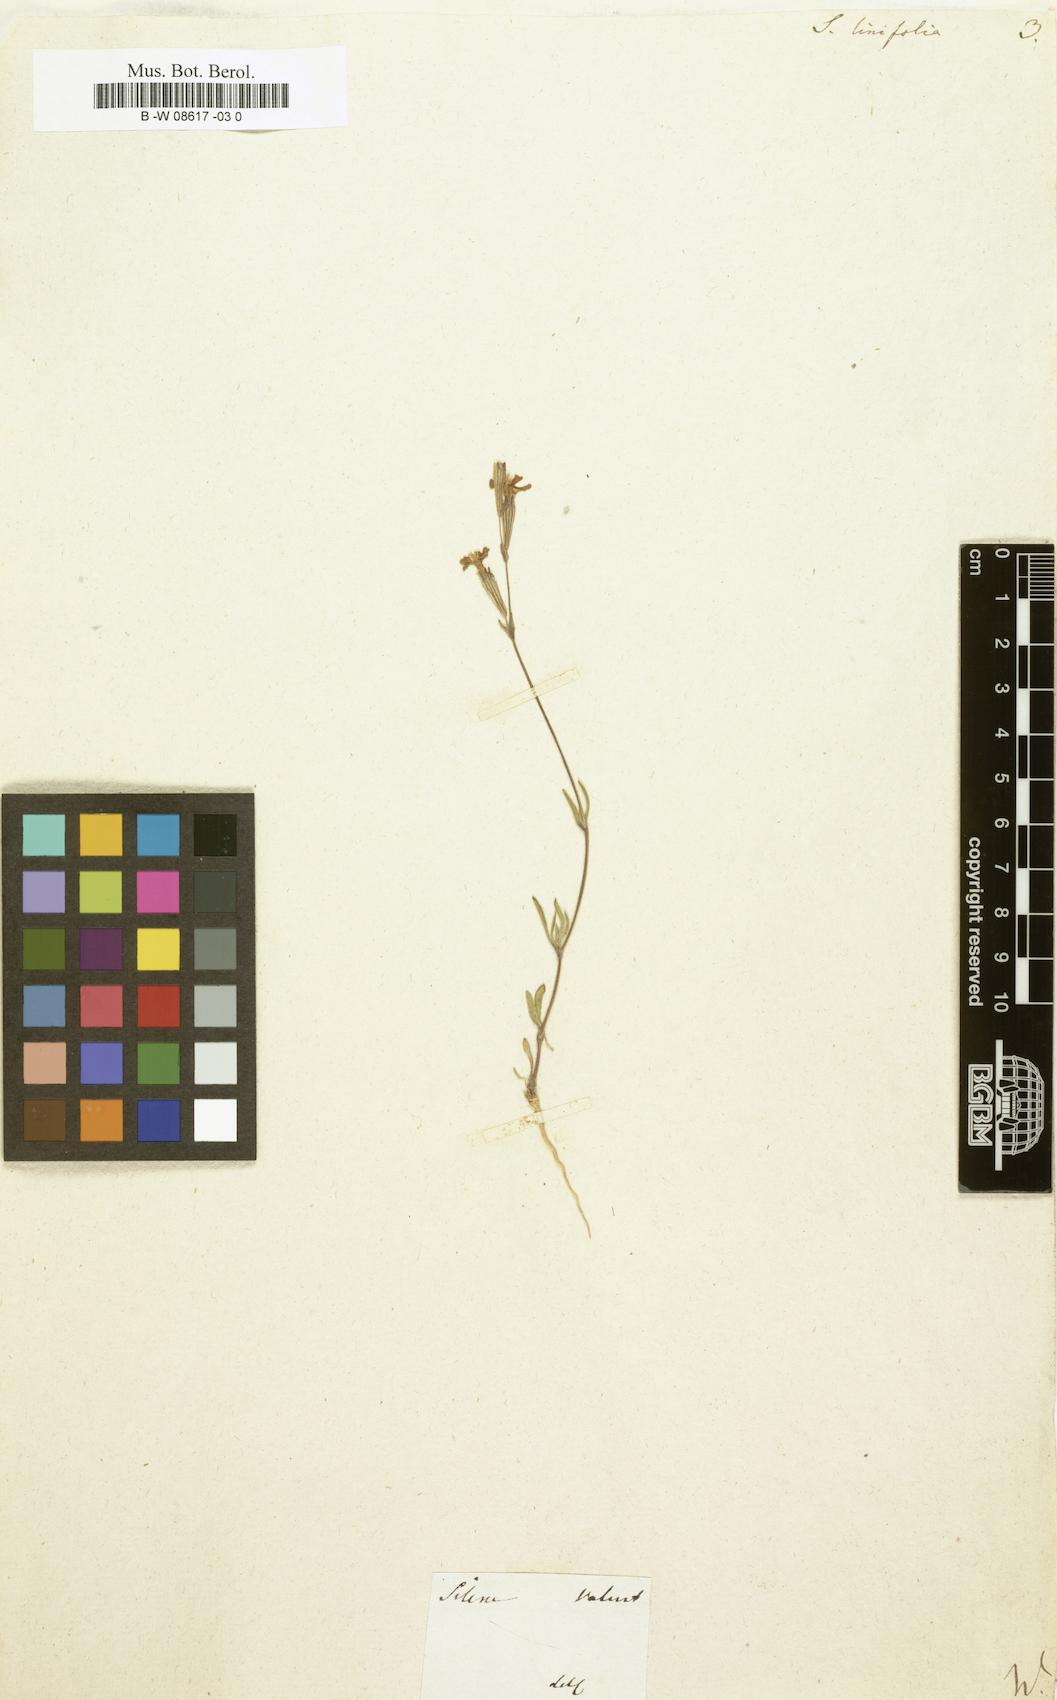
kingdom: Plantae
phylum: Tracheophyta
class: Magnoliopsida
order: Caryophyllales
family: Caryophyllaceae
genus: Silene
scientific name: Silene
